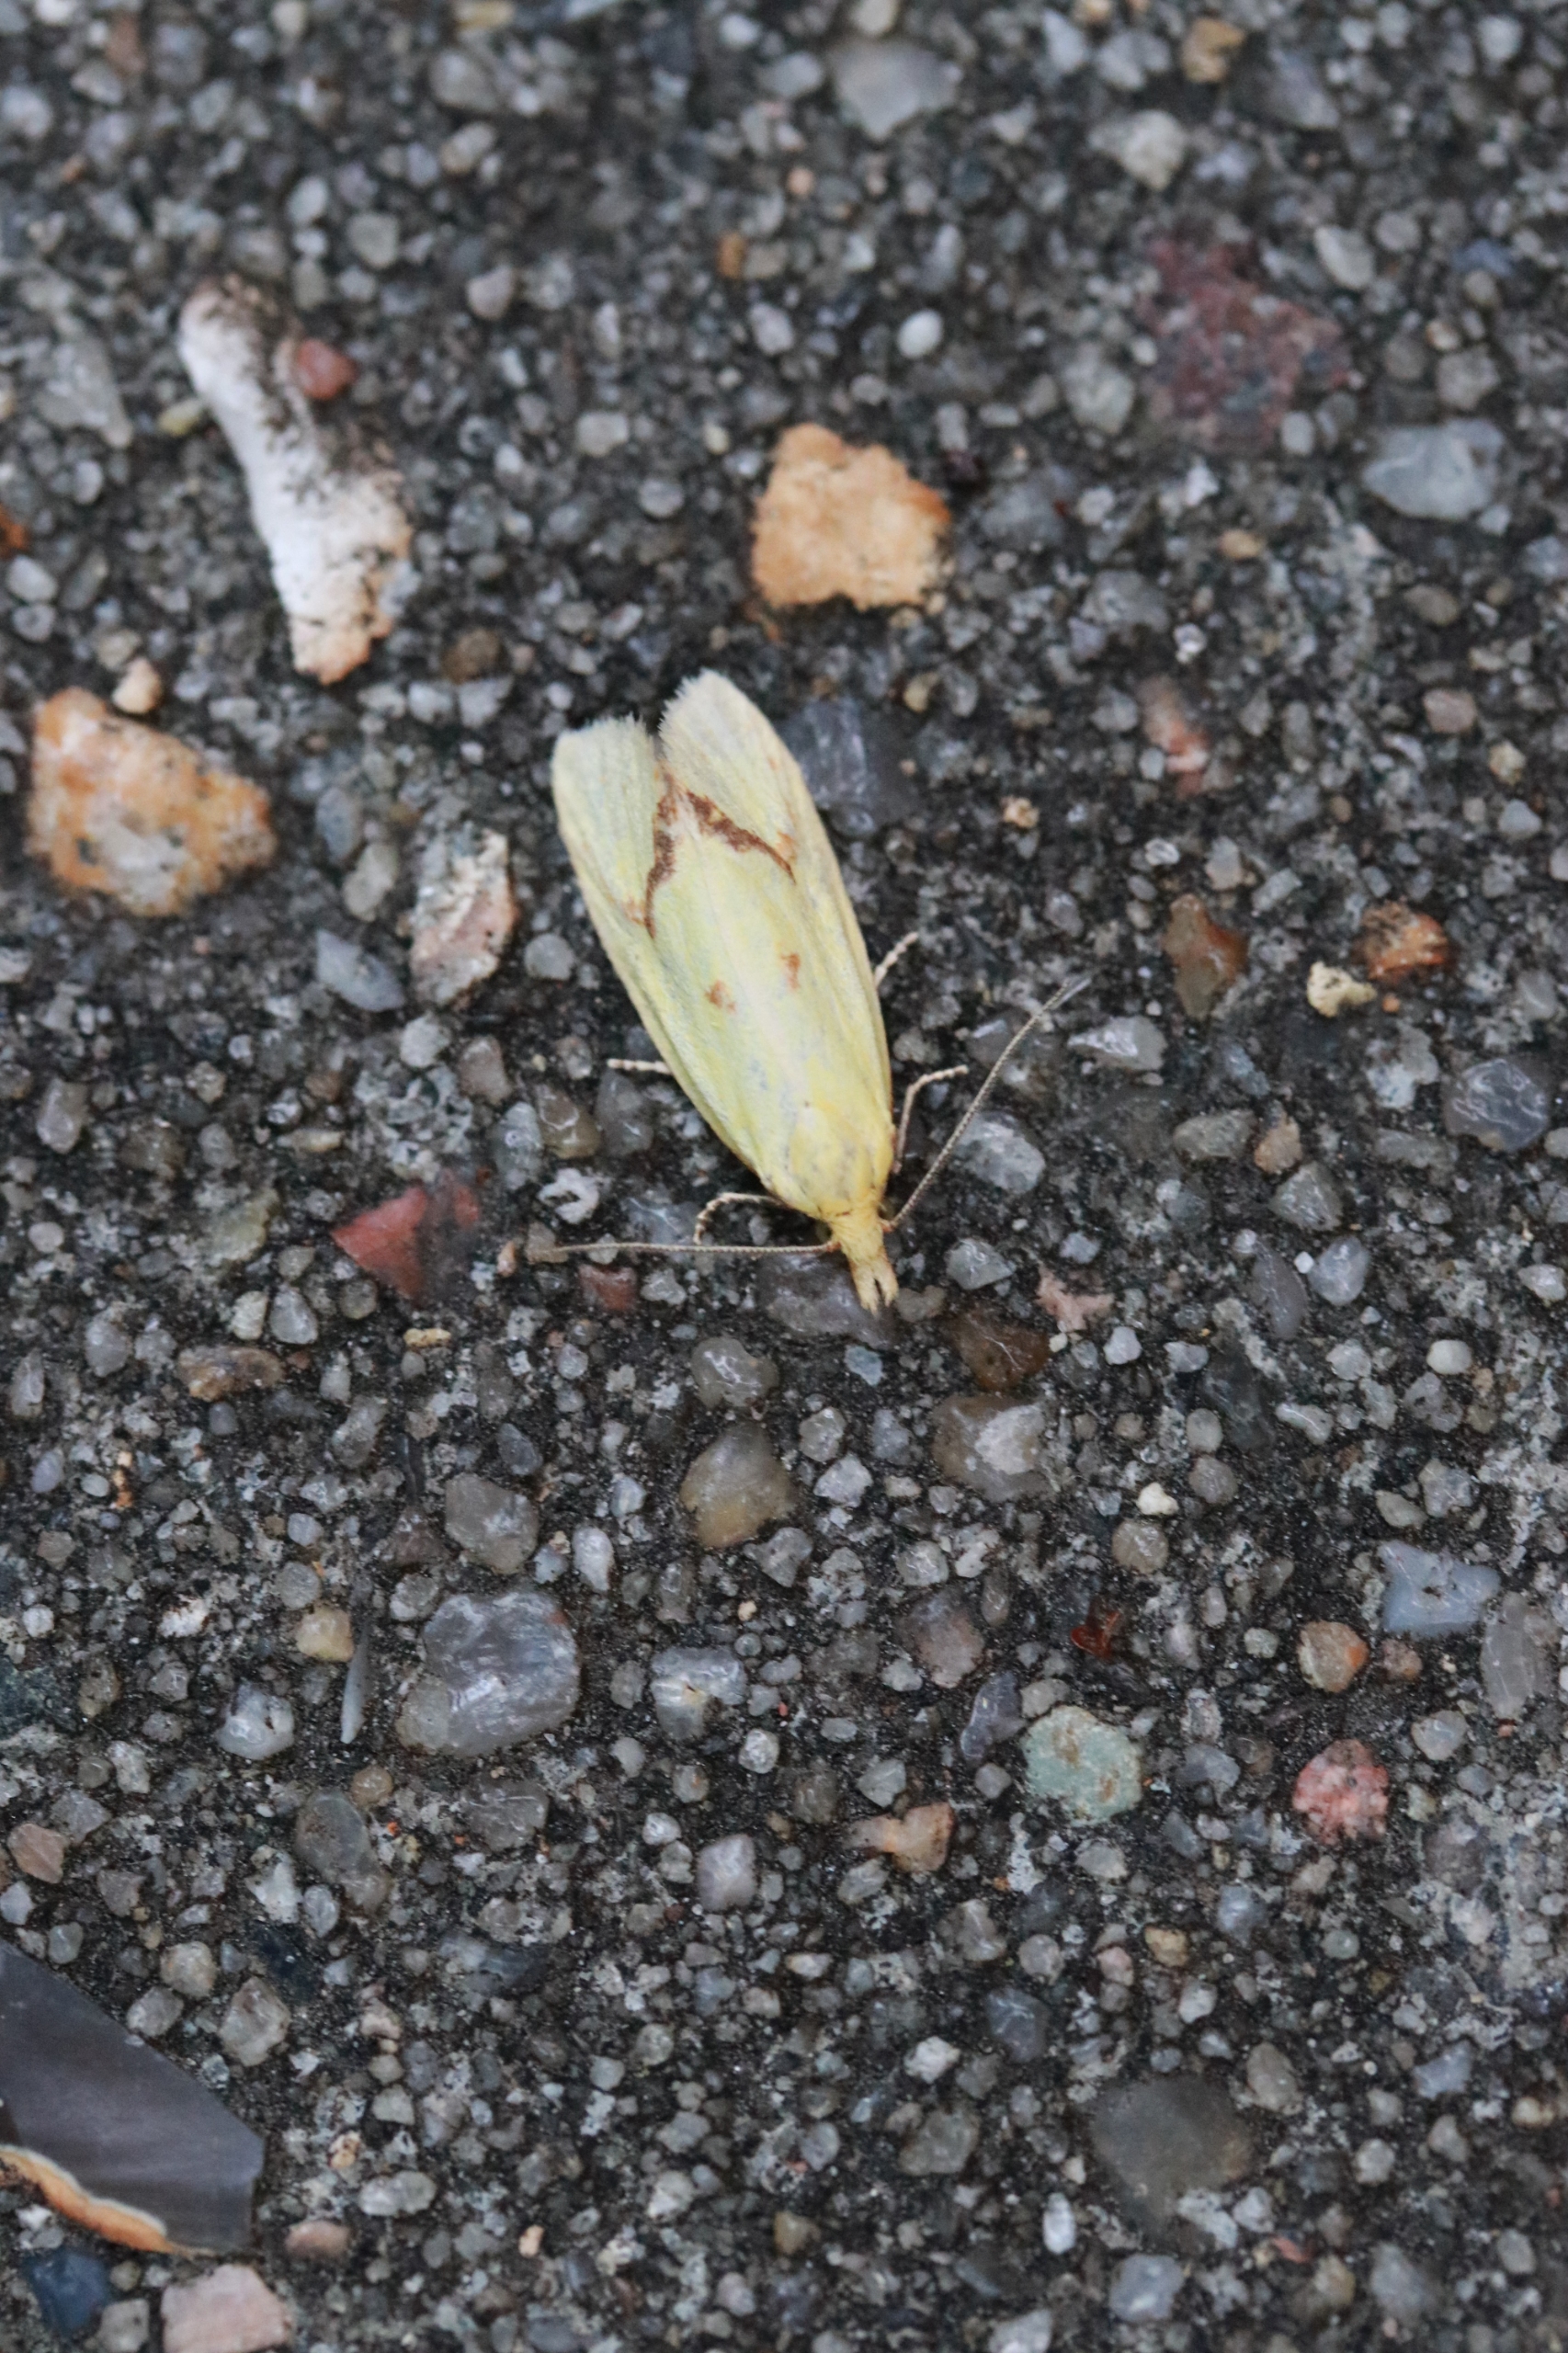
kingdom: Animalia
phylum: Arthropoda
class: Insecta
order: Lepidoptera
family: Tortricidae
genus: Agapeta
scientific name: Agapeta hamana
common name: Tidselgulvikler
